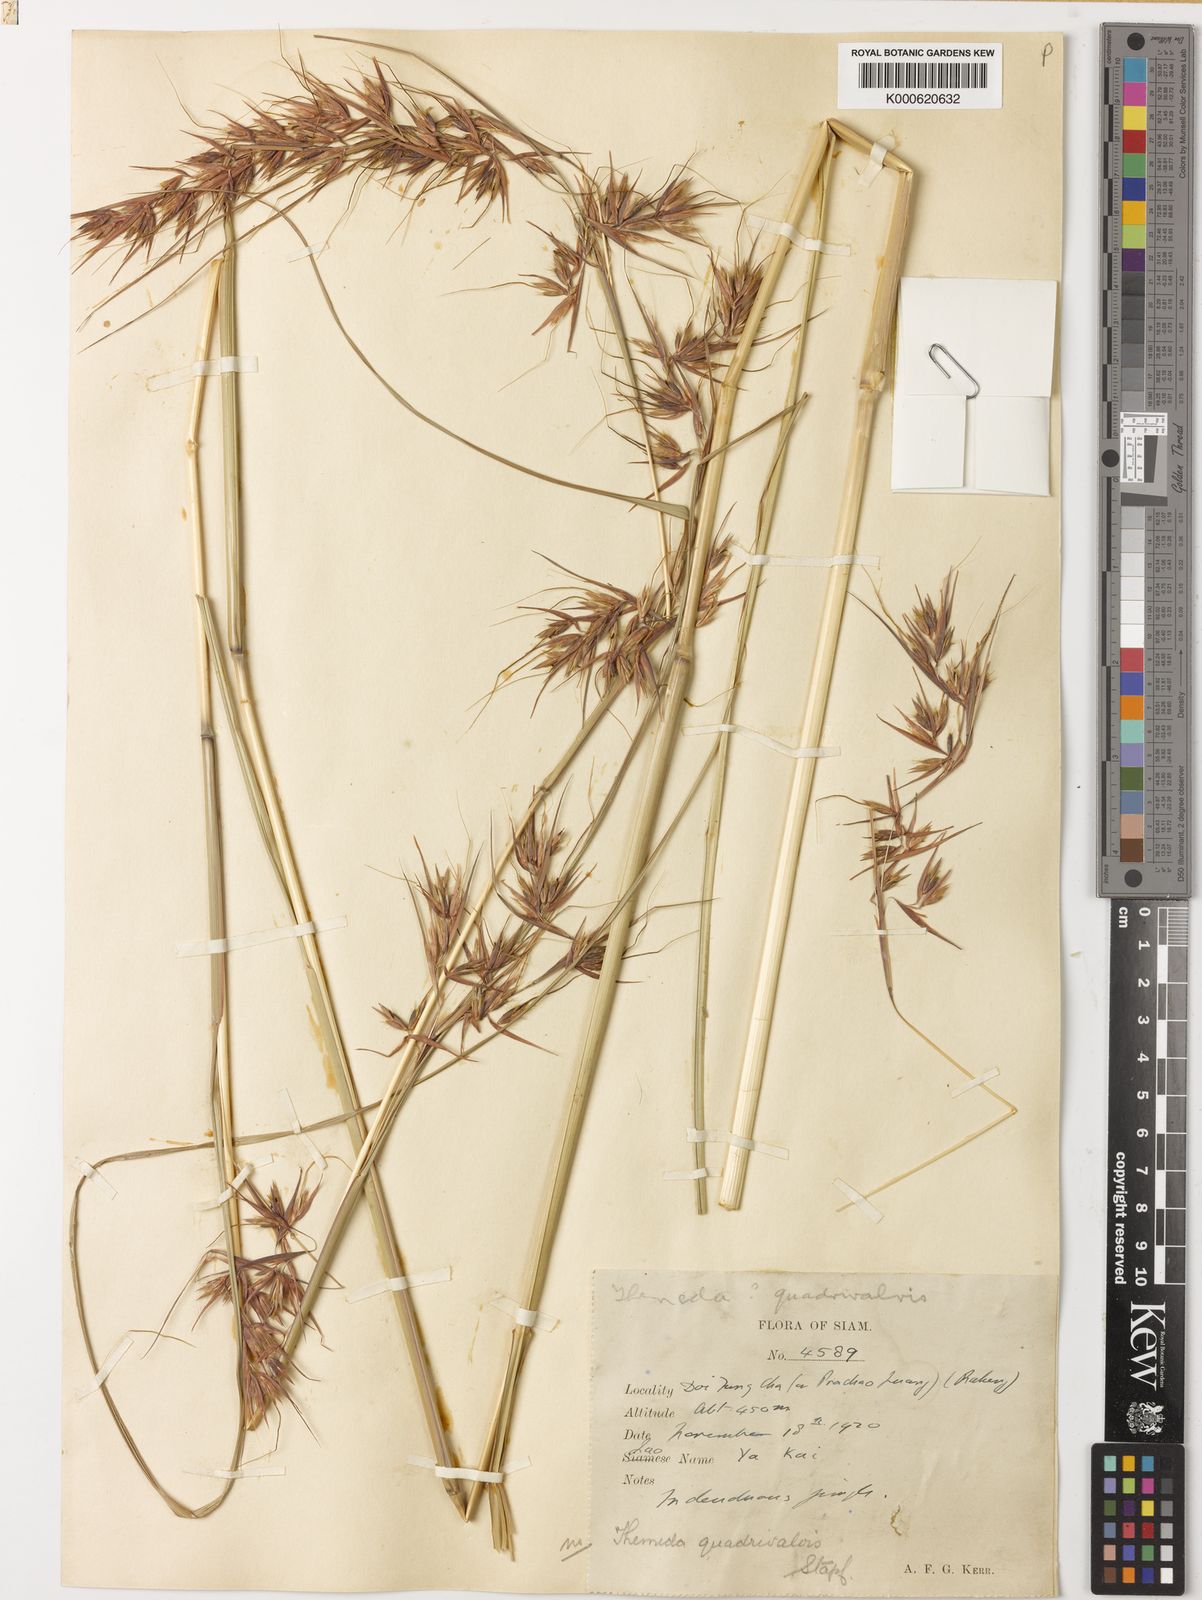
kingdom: Plantae
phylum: Tracheophyta
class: Liliopsida
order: Poales
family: Poaceae
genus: Themeda
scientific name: Themeda quadrivalvis
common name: Kangaroo grass
